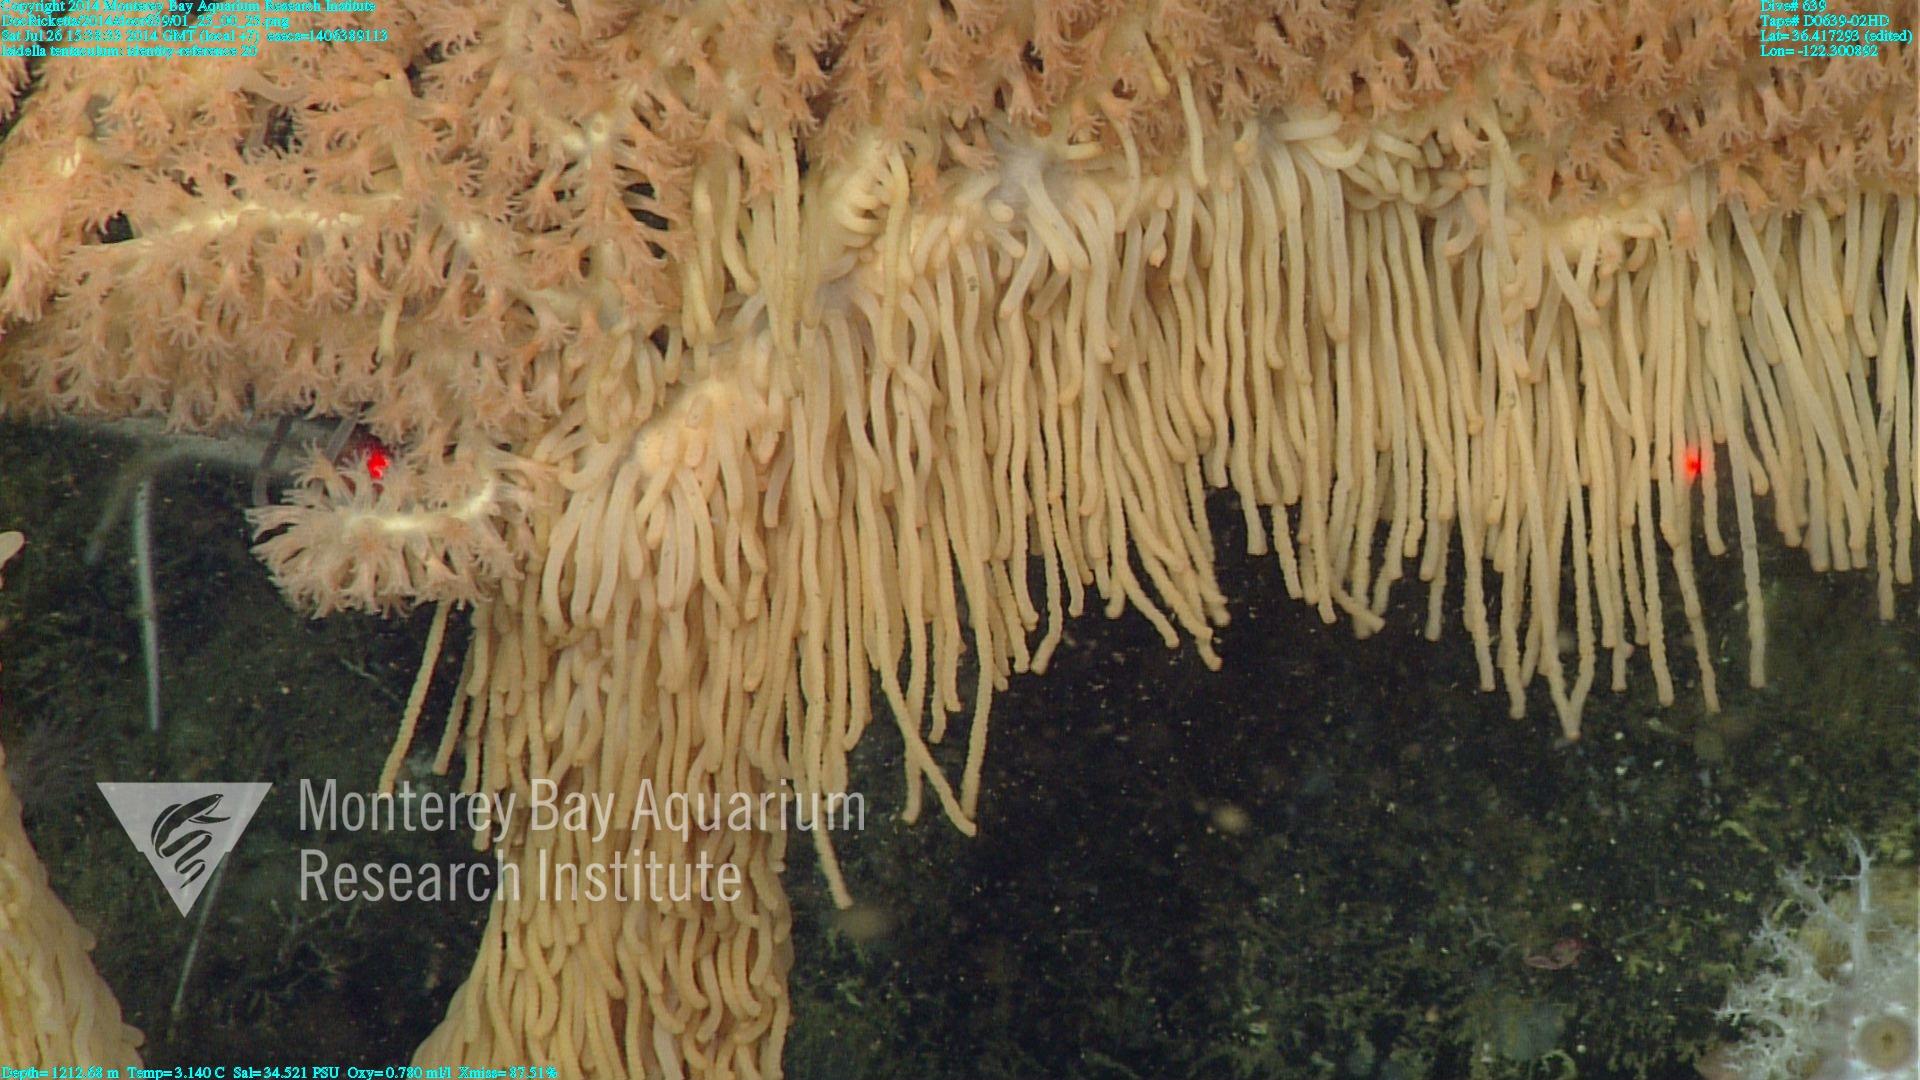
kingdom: Animalia
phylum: Cnidaria
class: Anthozoa
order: Scleralcyonacea
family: Keratoisididae
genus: Isidella
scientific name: Isidella tentaculum
